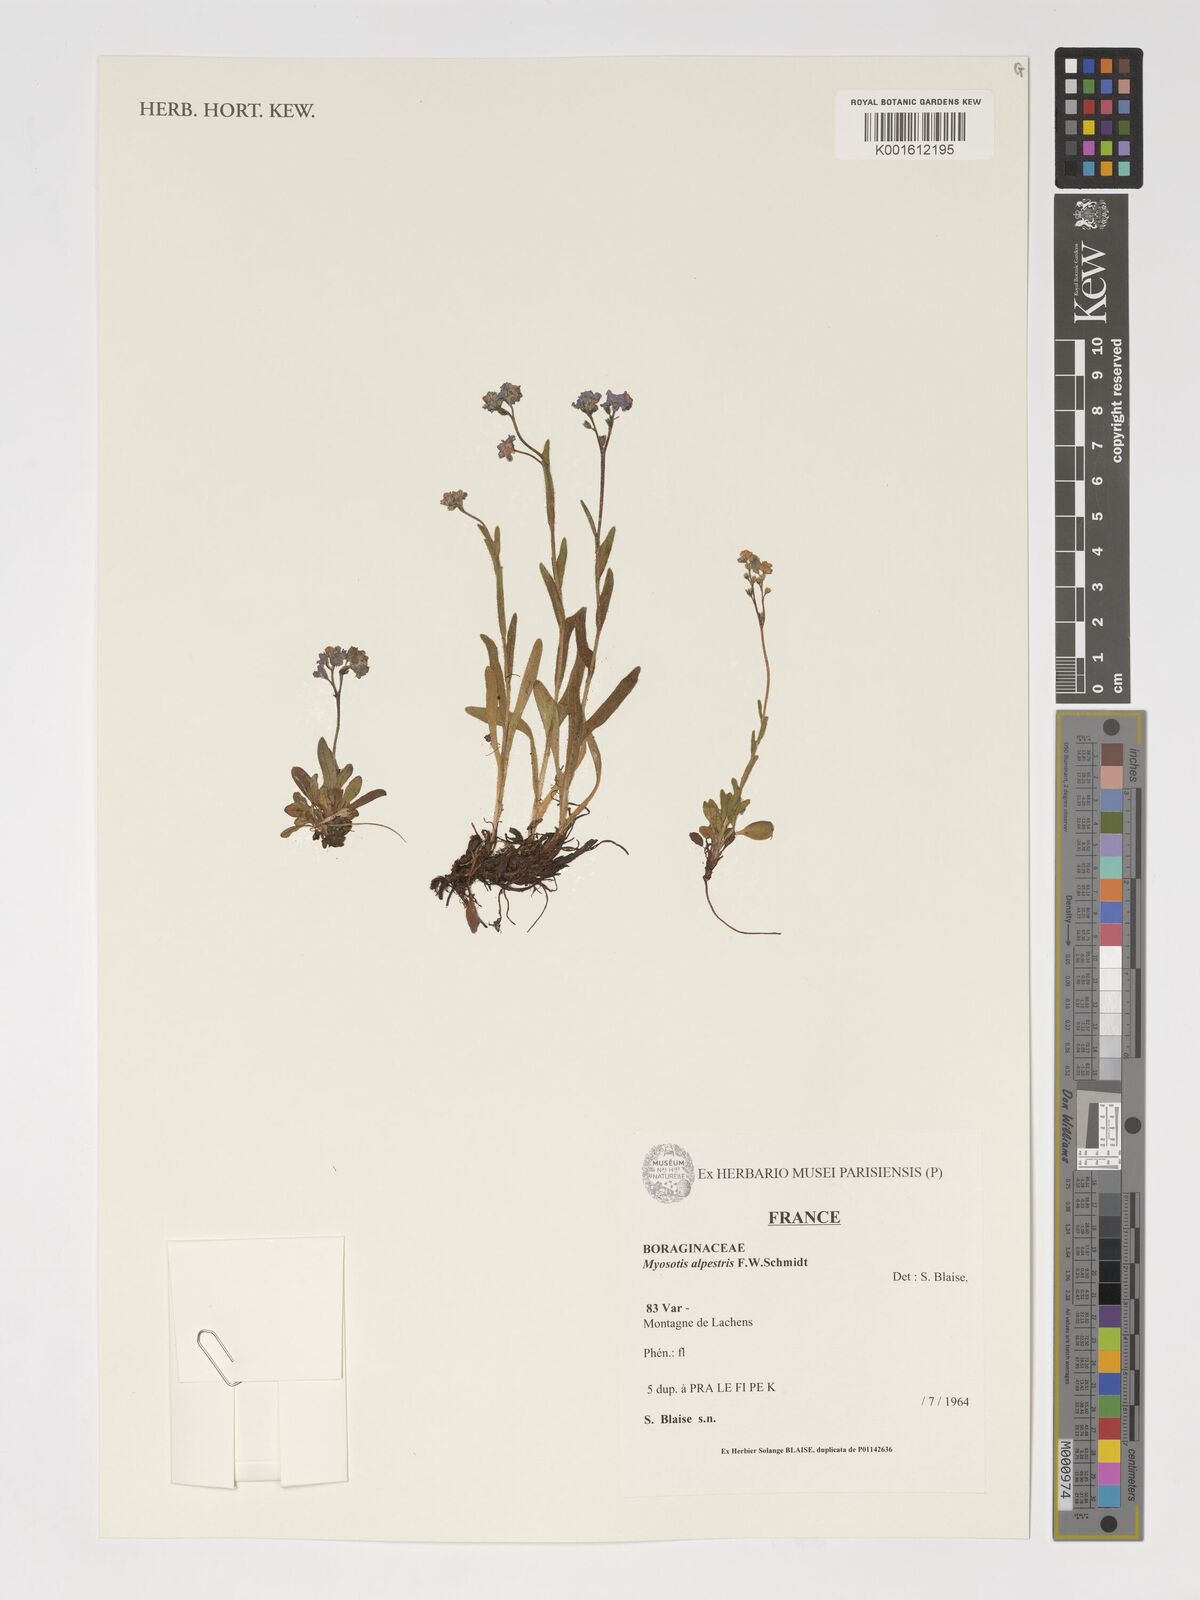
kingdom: Plantae
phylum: Tracheophyta
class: Magnoliopsida
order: Boraginales
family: Boraginaceae
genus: Myosotis
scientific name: Myosotis alpestris
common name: Alpine forget-me-not
